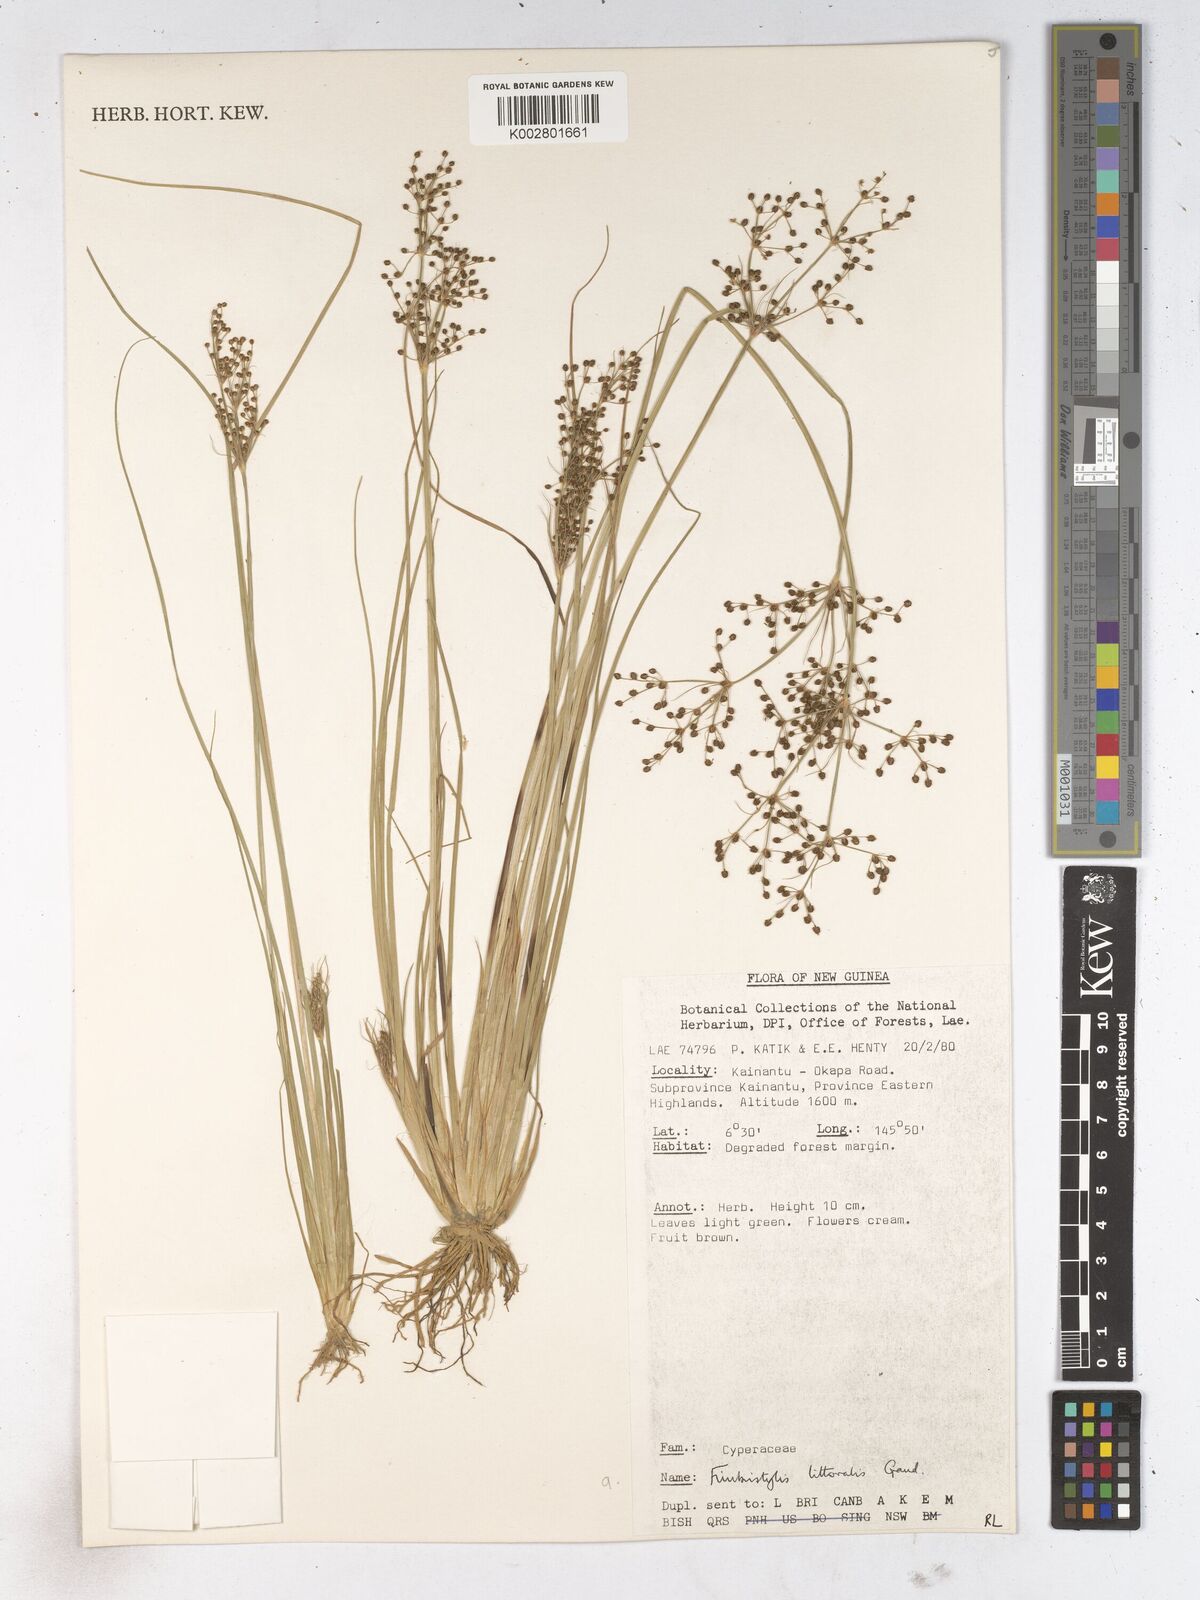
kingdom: Plantae
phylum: Tracheophyta
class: Liliopsida
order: Poales
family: Cyperaceae
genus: Fimbristylis
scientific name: Fimbristylis littoralis
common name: Fimbry
